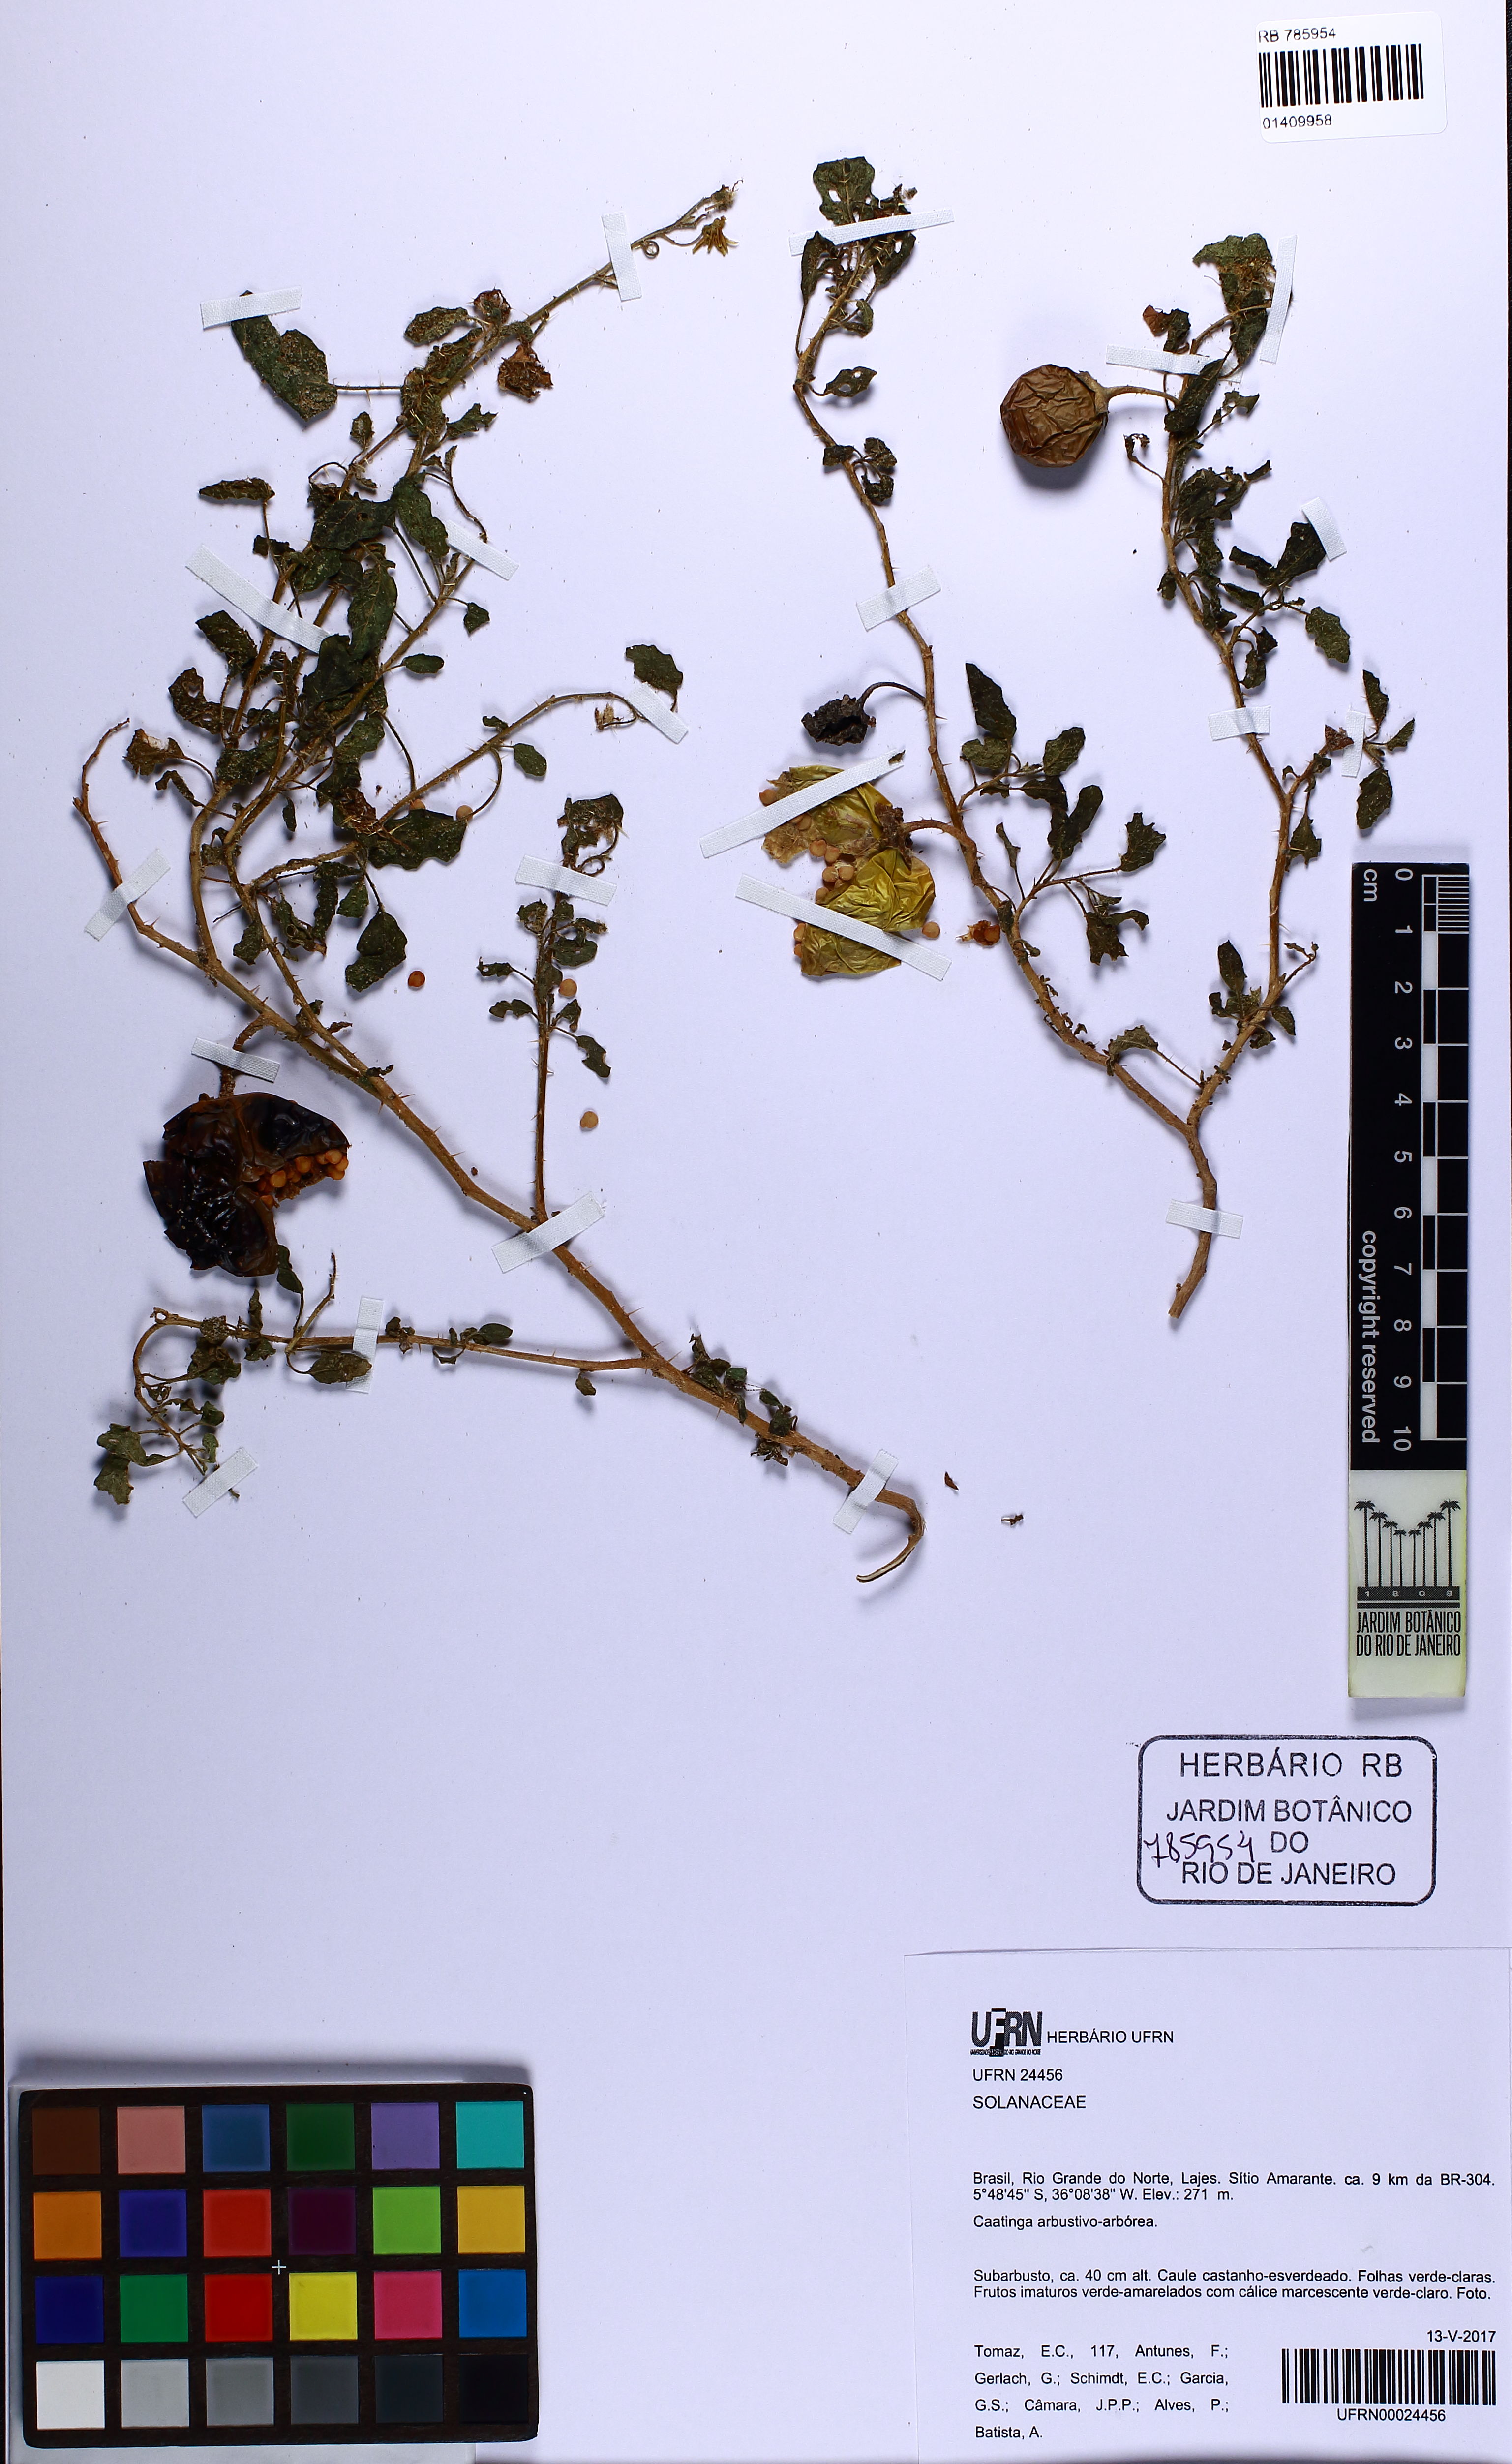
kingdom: Plantae
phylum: Tracheophyta
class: Magnoliopsida
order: Solanales
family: Solanaceae
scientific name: Solanaceae
